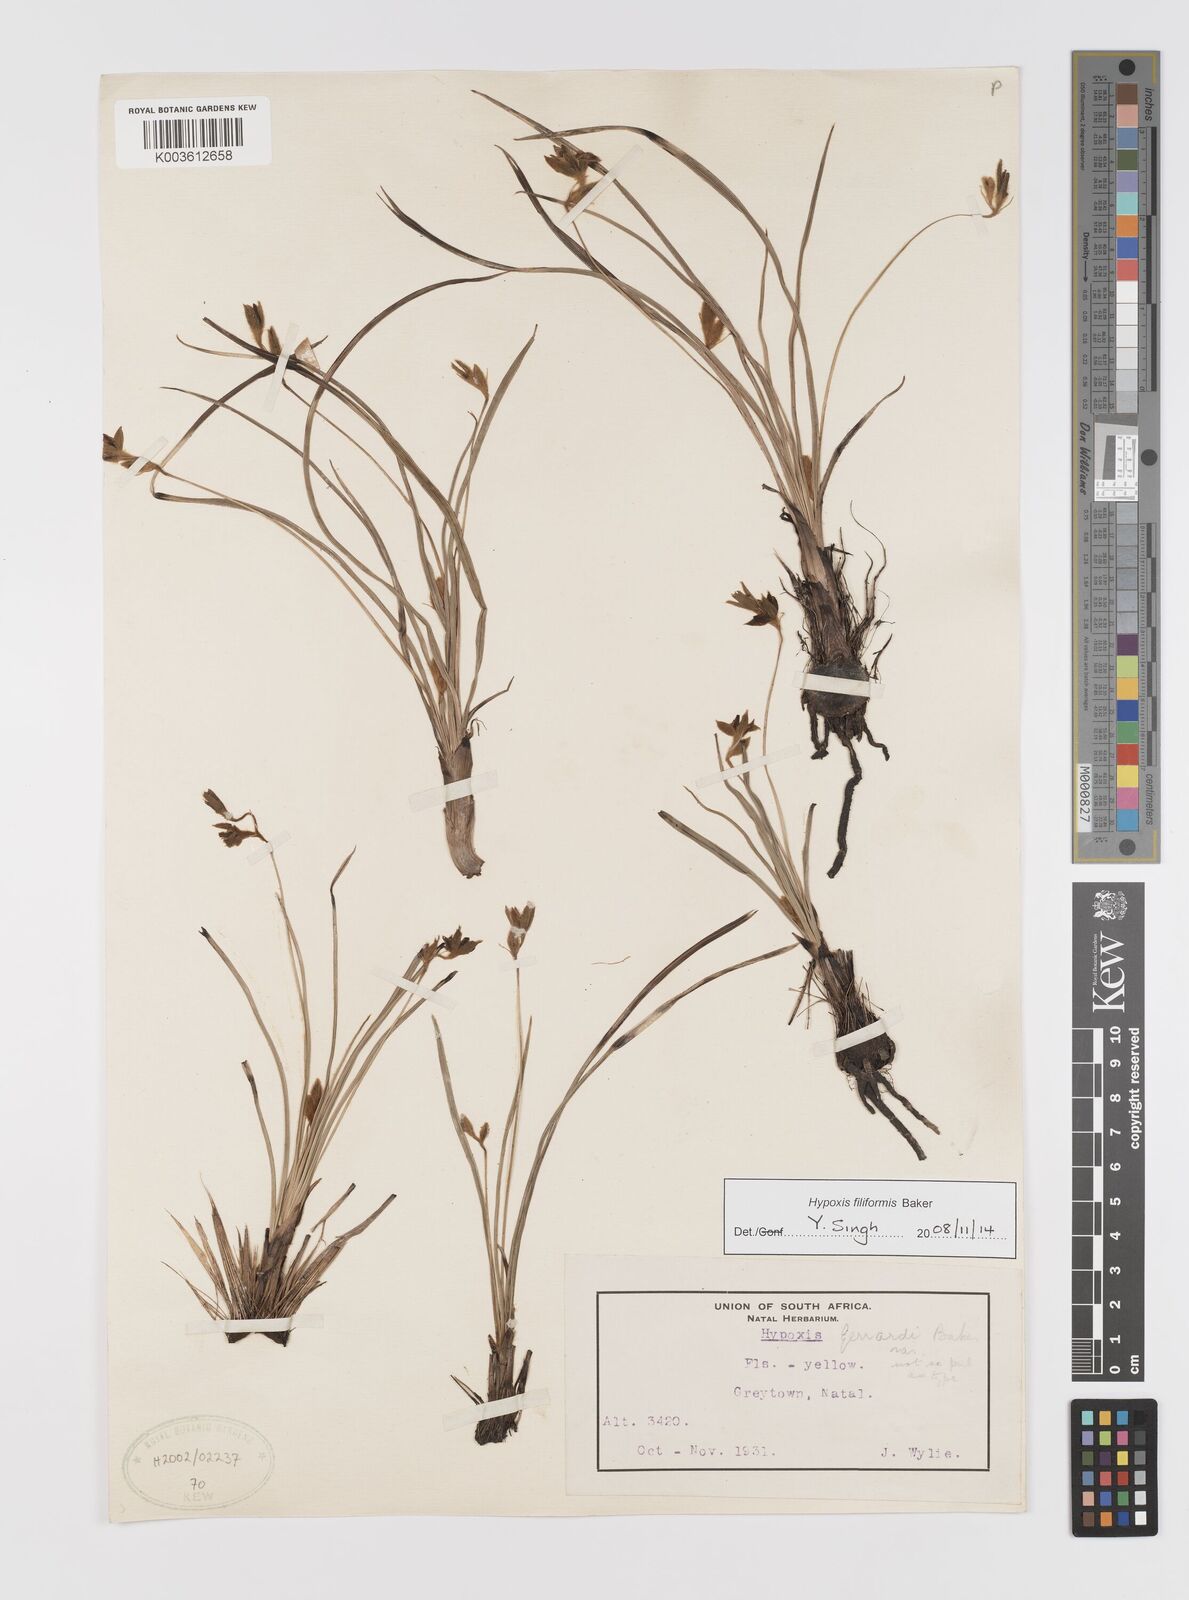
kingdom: Plantae
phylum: Tracheophyta
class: Liliopsida
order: Asparagales
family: Hypoxidaceae
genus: Hypoxis
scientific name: Hypoxis filiformis
